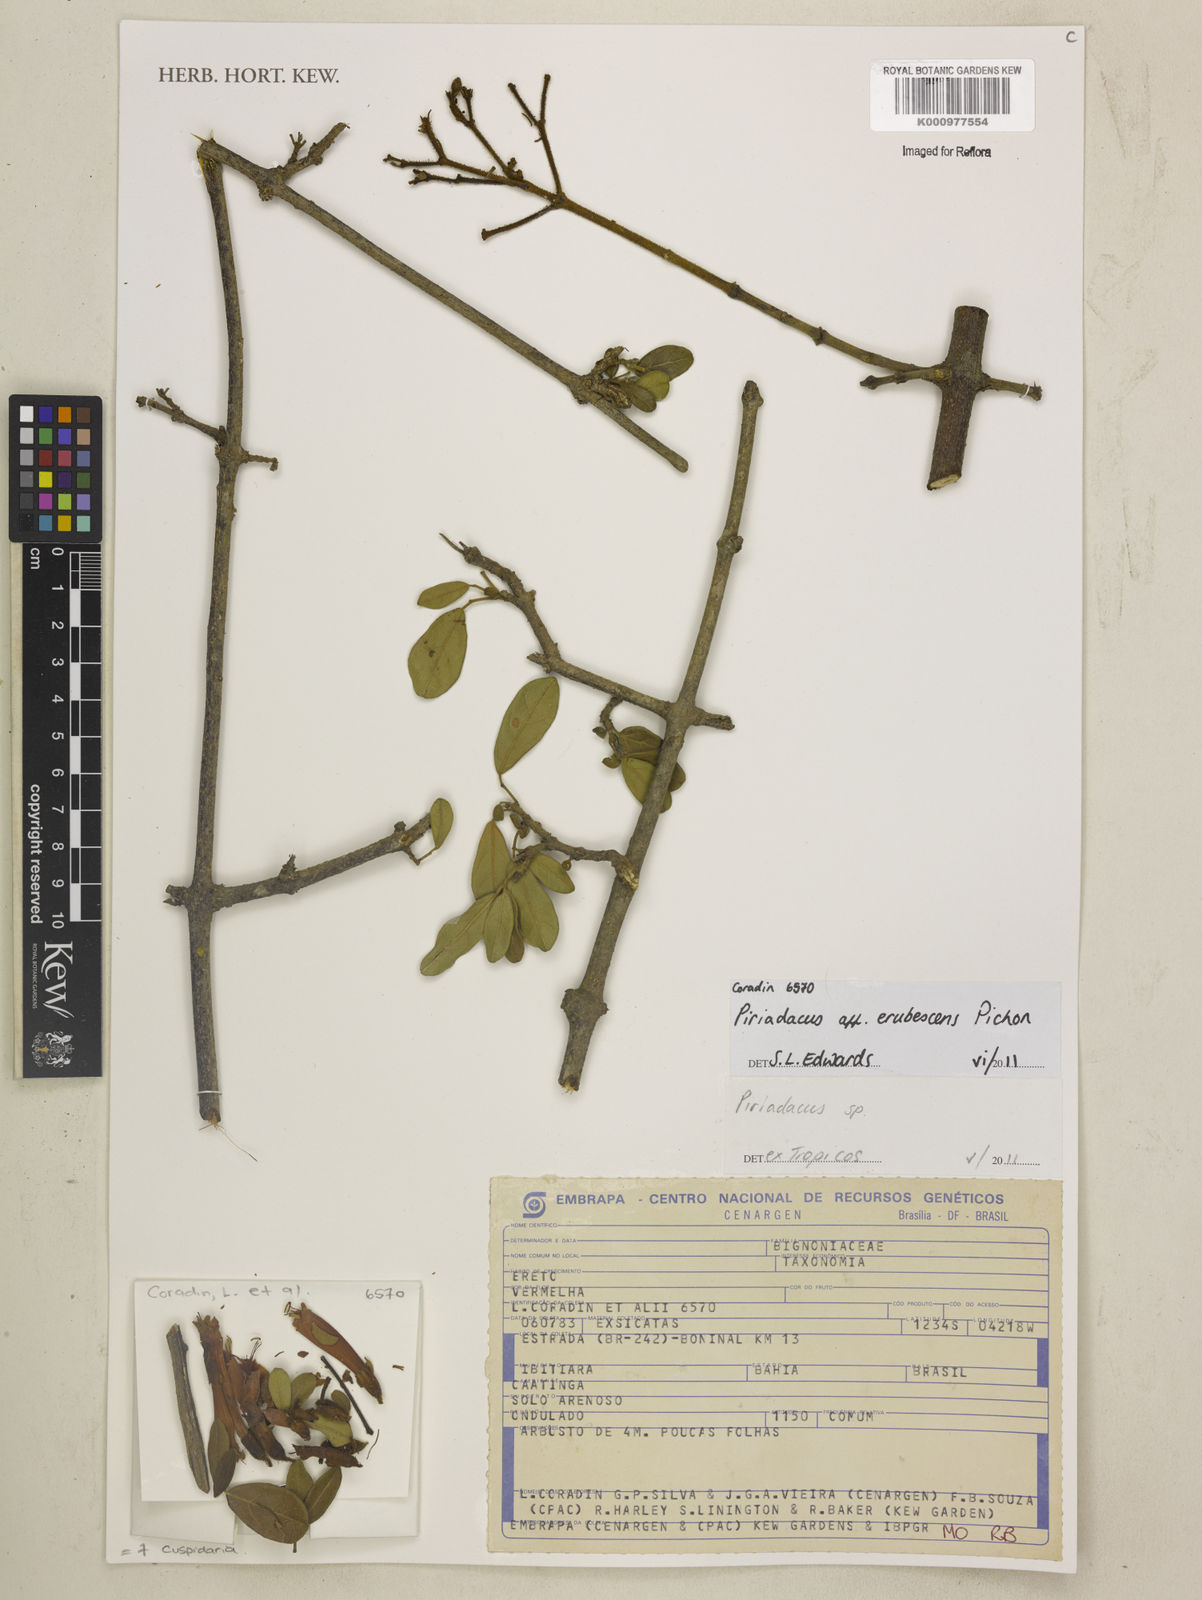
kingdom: Plantae
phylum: Tracheophyta
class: Magnoliopsida
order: Lamiales
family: Bignoniaceae
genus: Fridericia
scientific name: Fridericia erubescens
